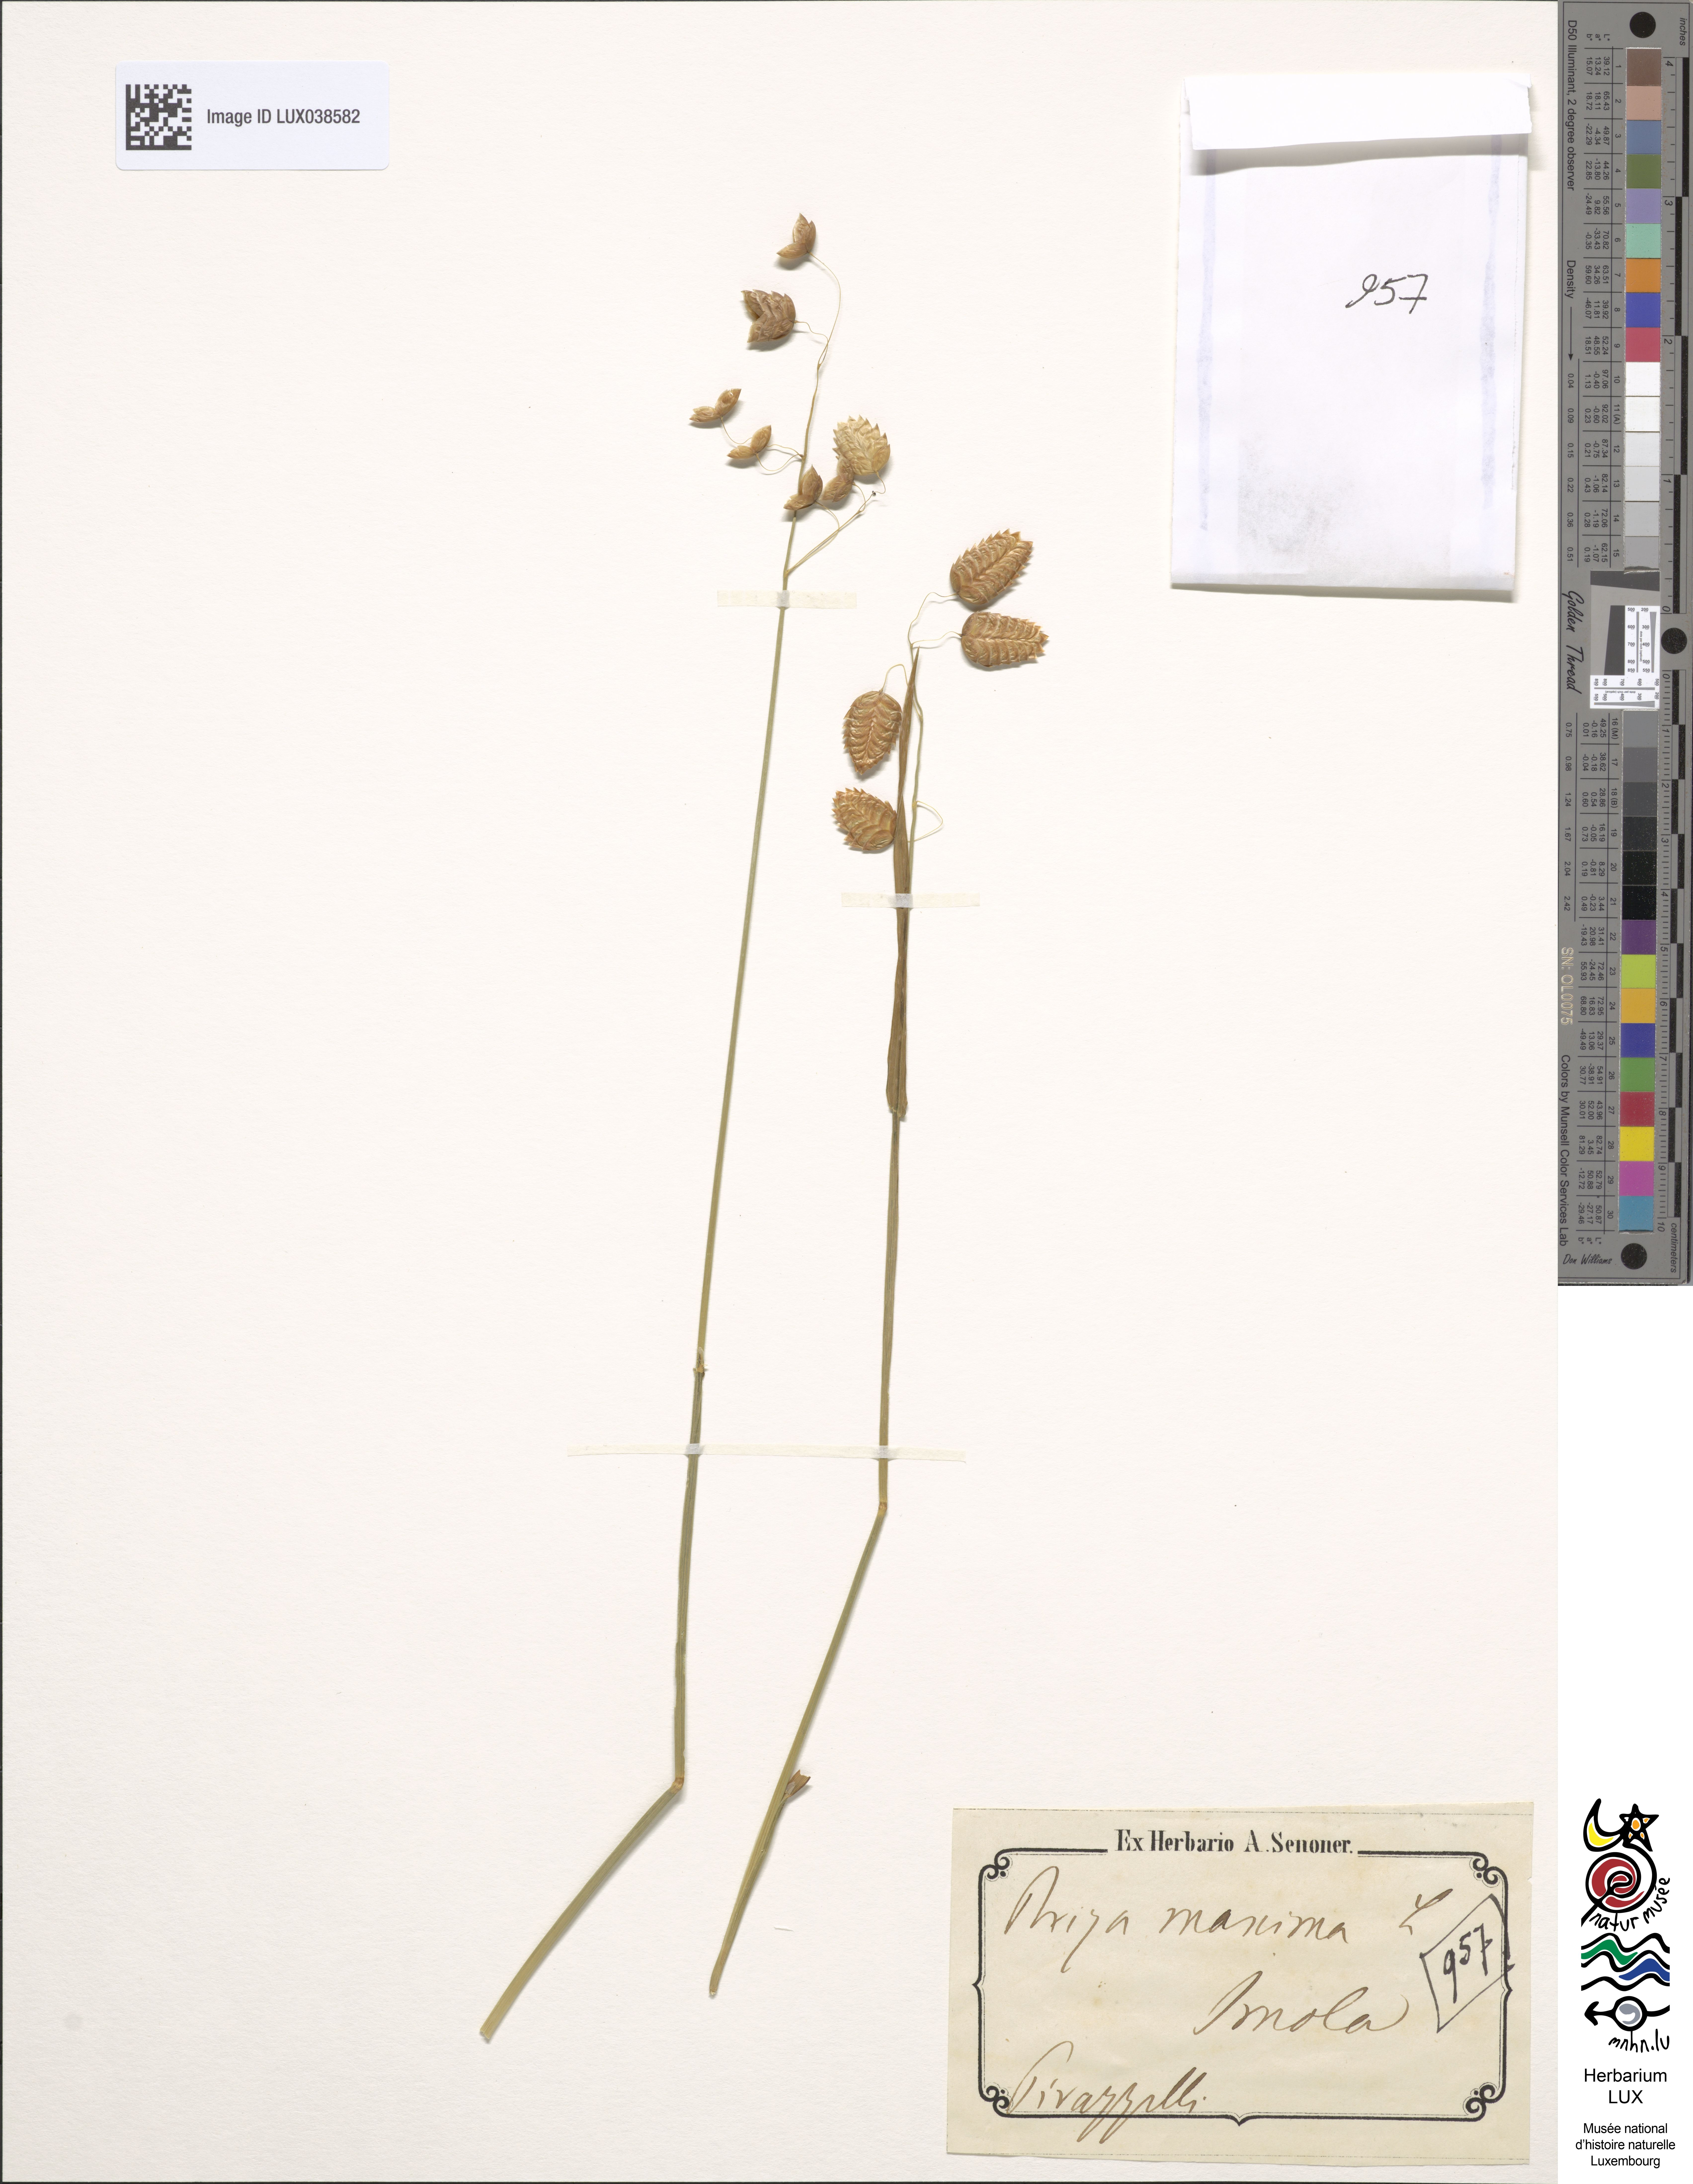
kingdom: Plantae
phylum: Tracheophyta
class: Liliopsida
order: Poales
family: Poaceae
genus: Briza
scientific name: Briza maxima
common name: Big quakinggrass
